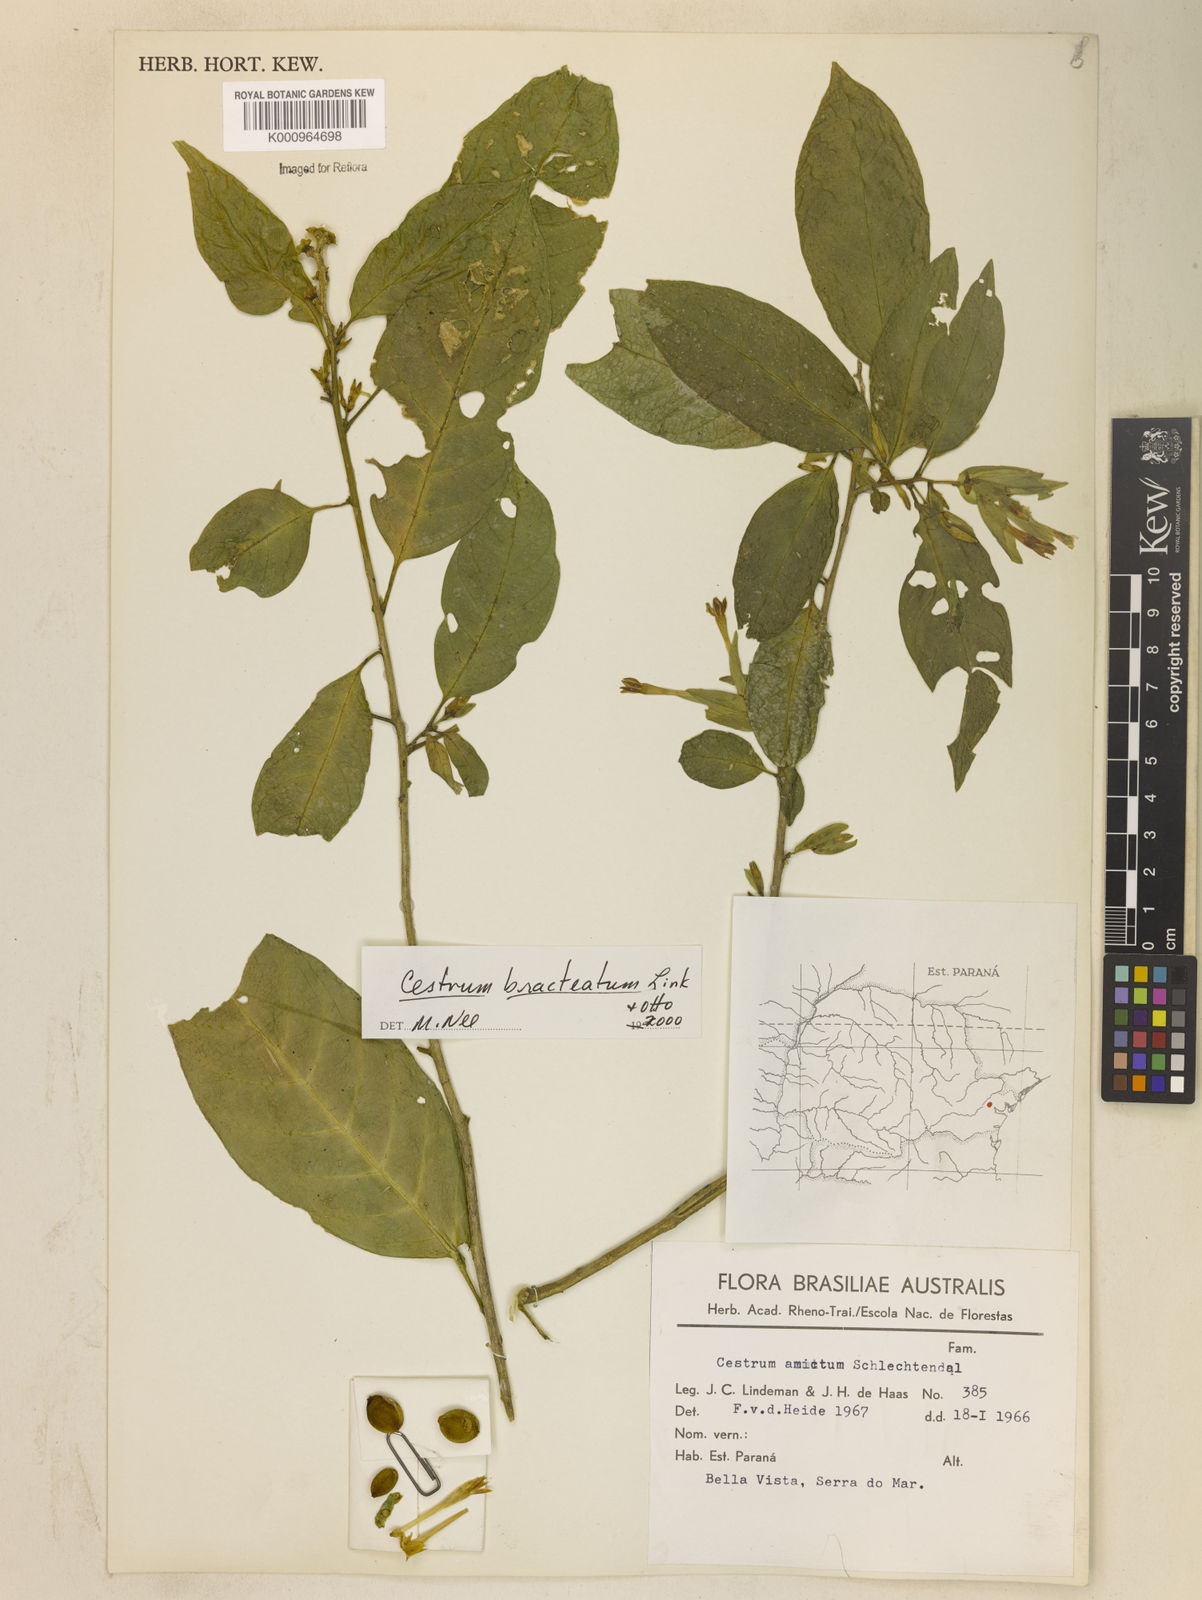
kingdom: Plantae
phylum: Tracheophyta
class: Magnoliopsida
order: Solanales
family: Solanaceae
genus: Cestrum
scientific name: Cestrum bracteatum
